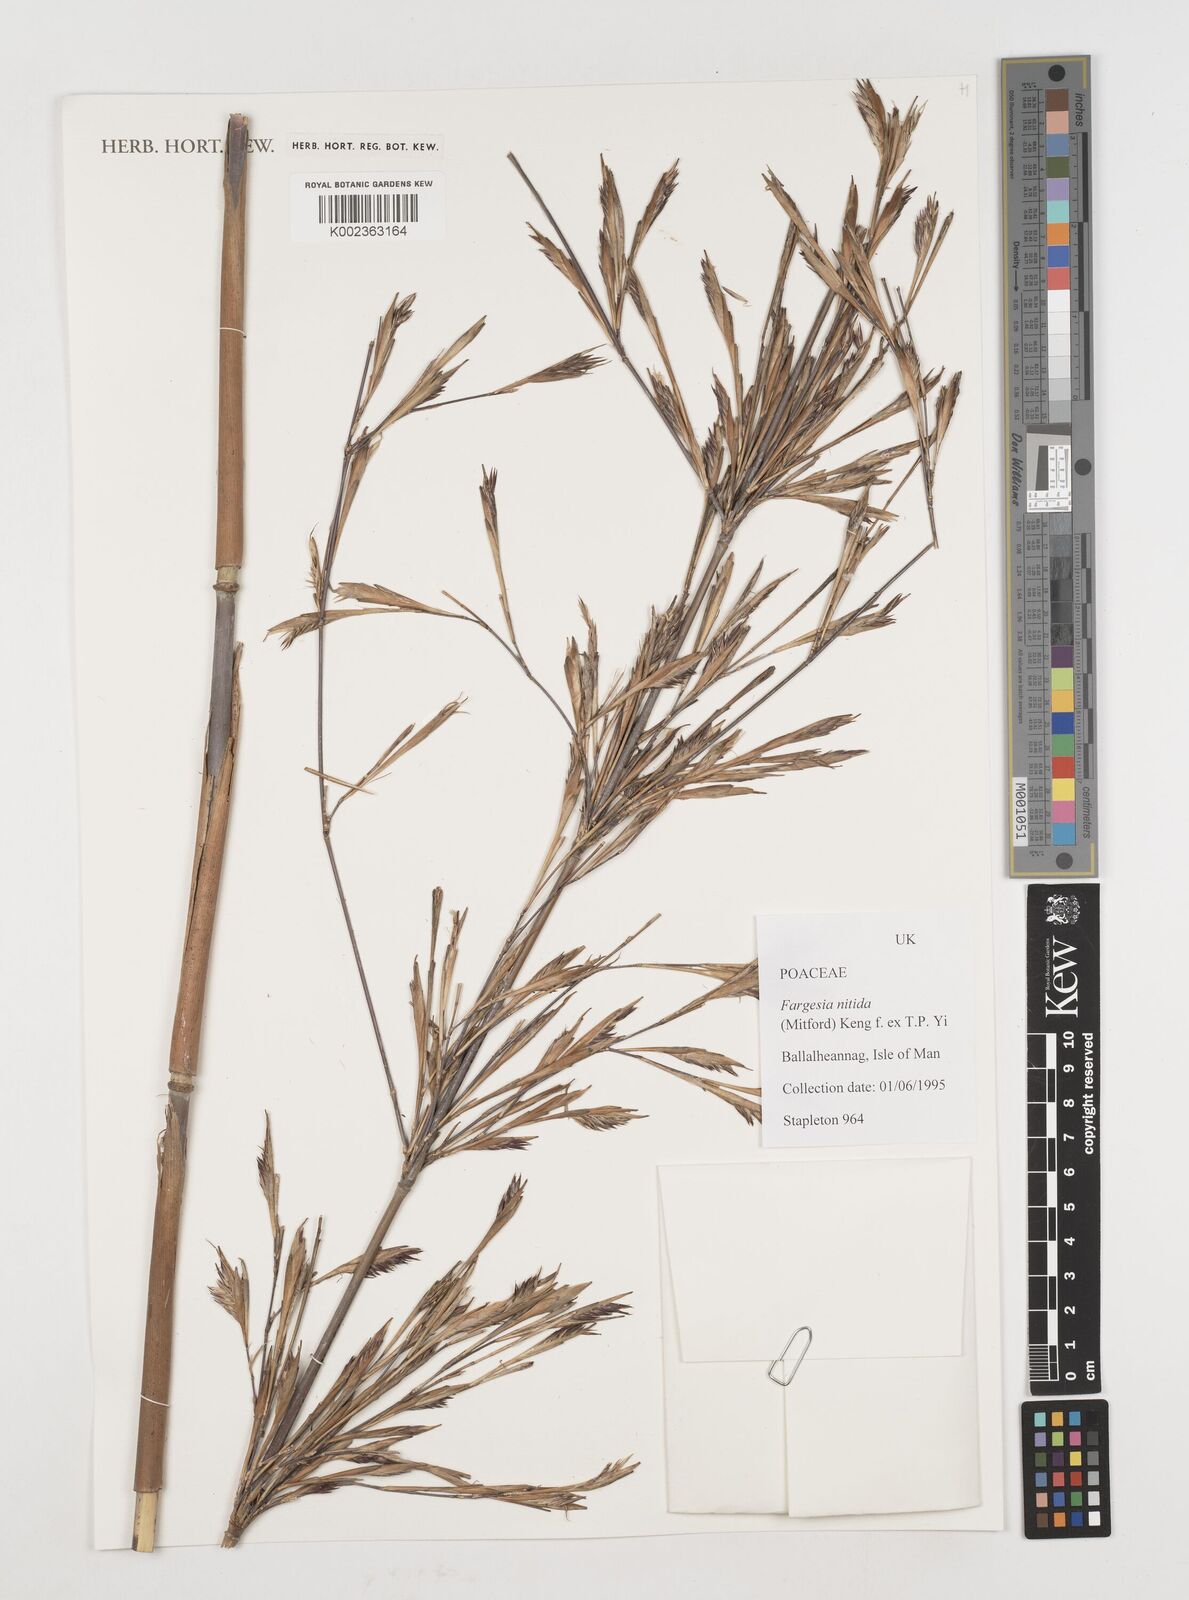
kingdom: Plantae
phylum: Tracheophyta
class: Liliopsida
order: Poales
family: Poaceae
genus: Fargesia
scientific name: Fargesia nitida ex
